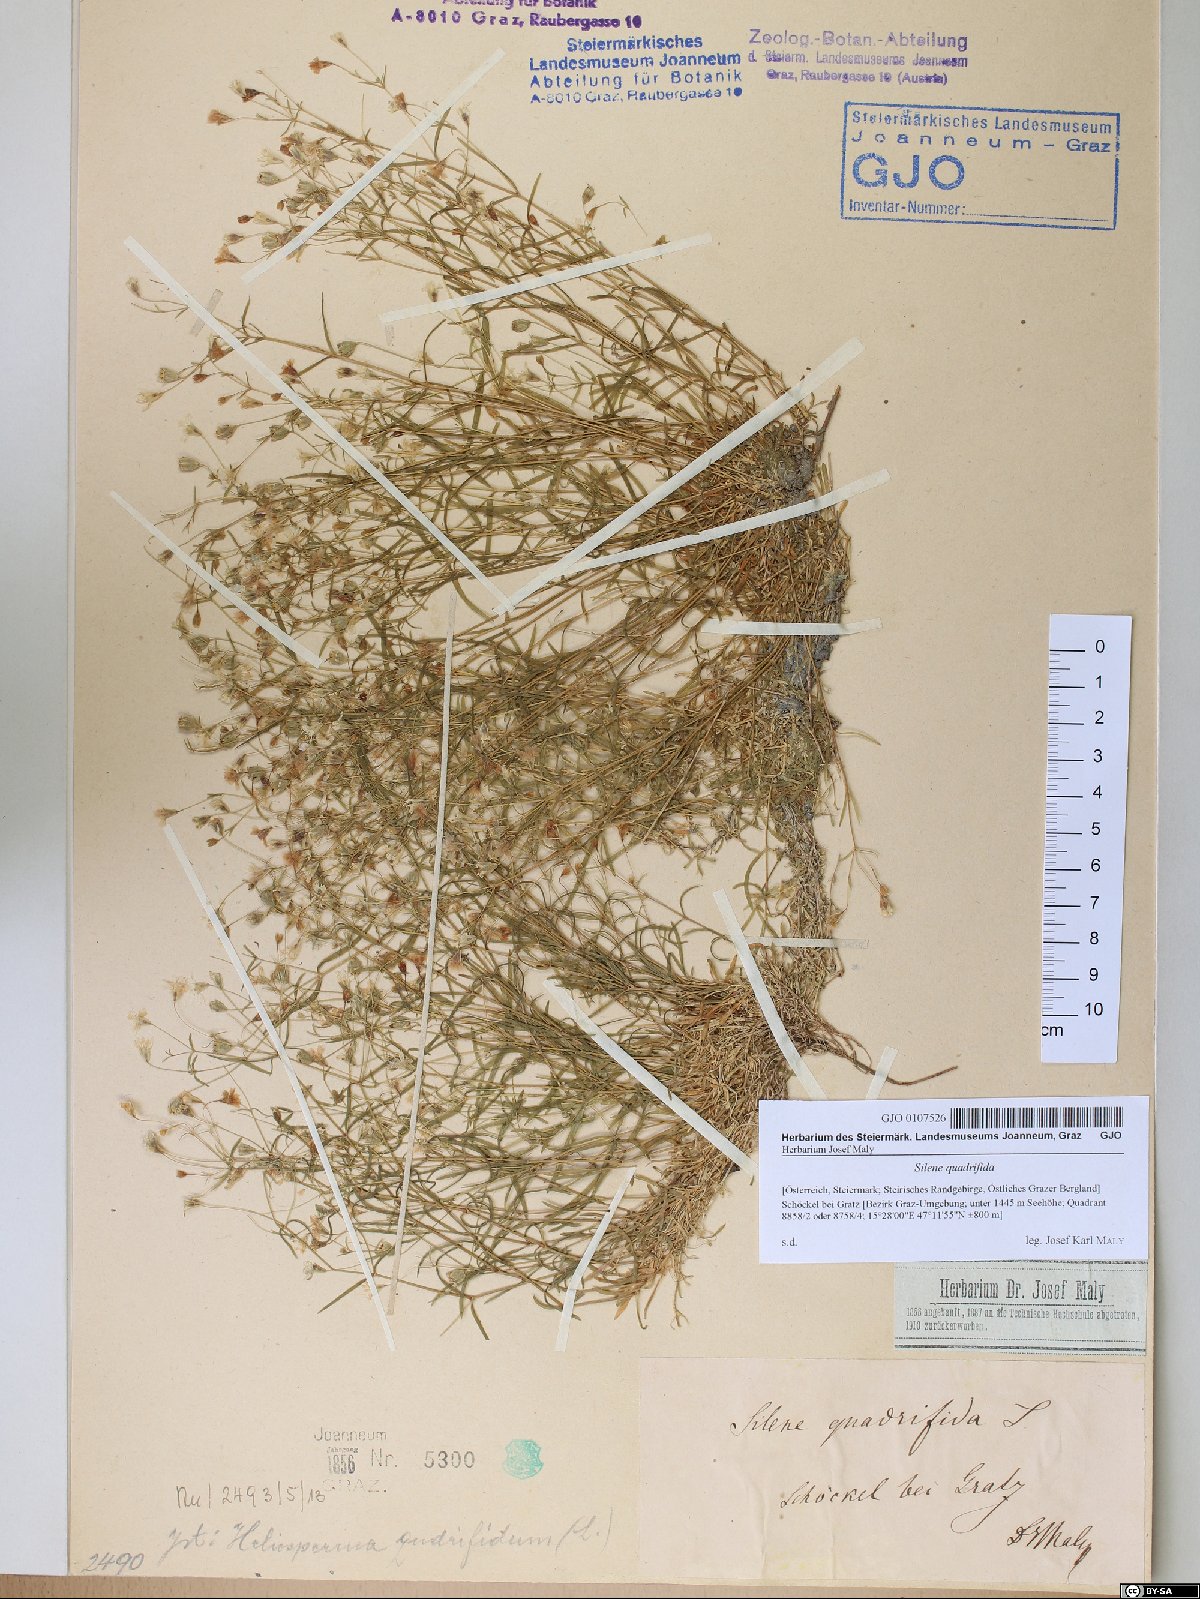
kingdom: Plantae
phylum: Tracheophyta
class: Magnoliopsida
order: Caryophyllales
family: Caryophyllaceae
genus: Heliosperma
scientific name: Heliosperma alpestre
